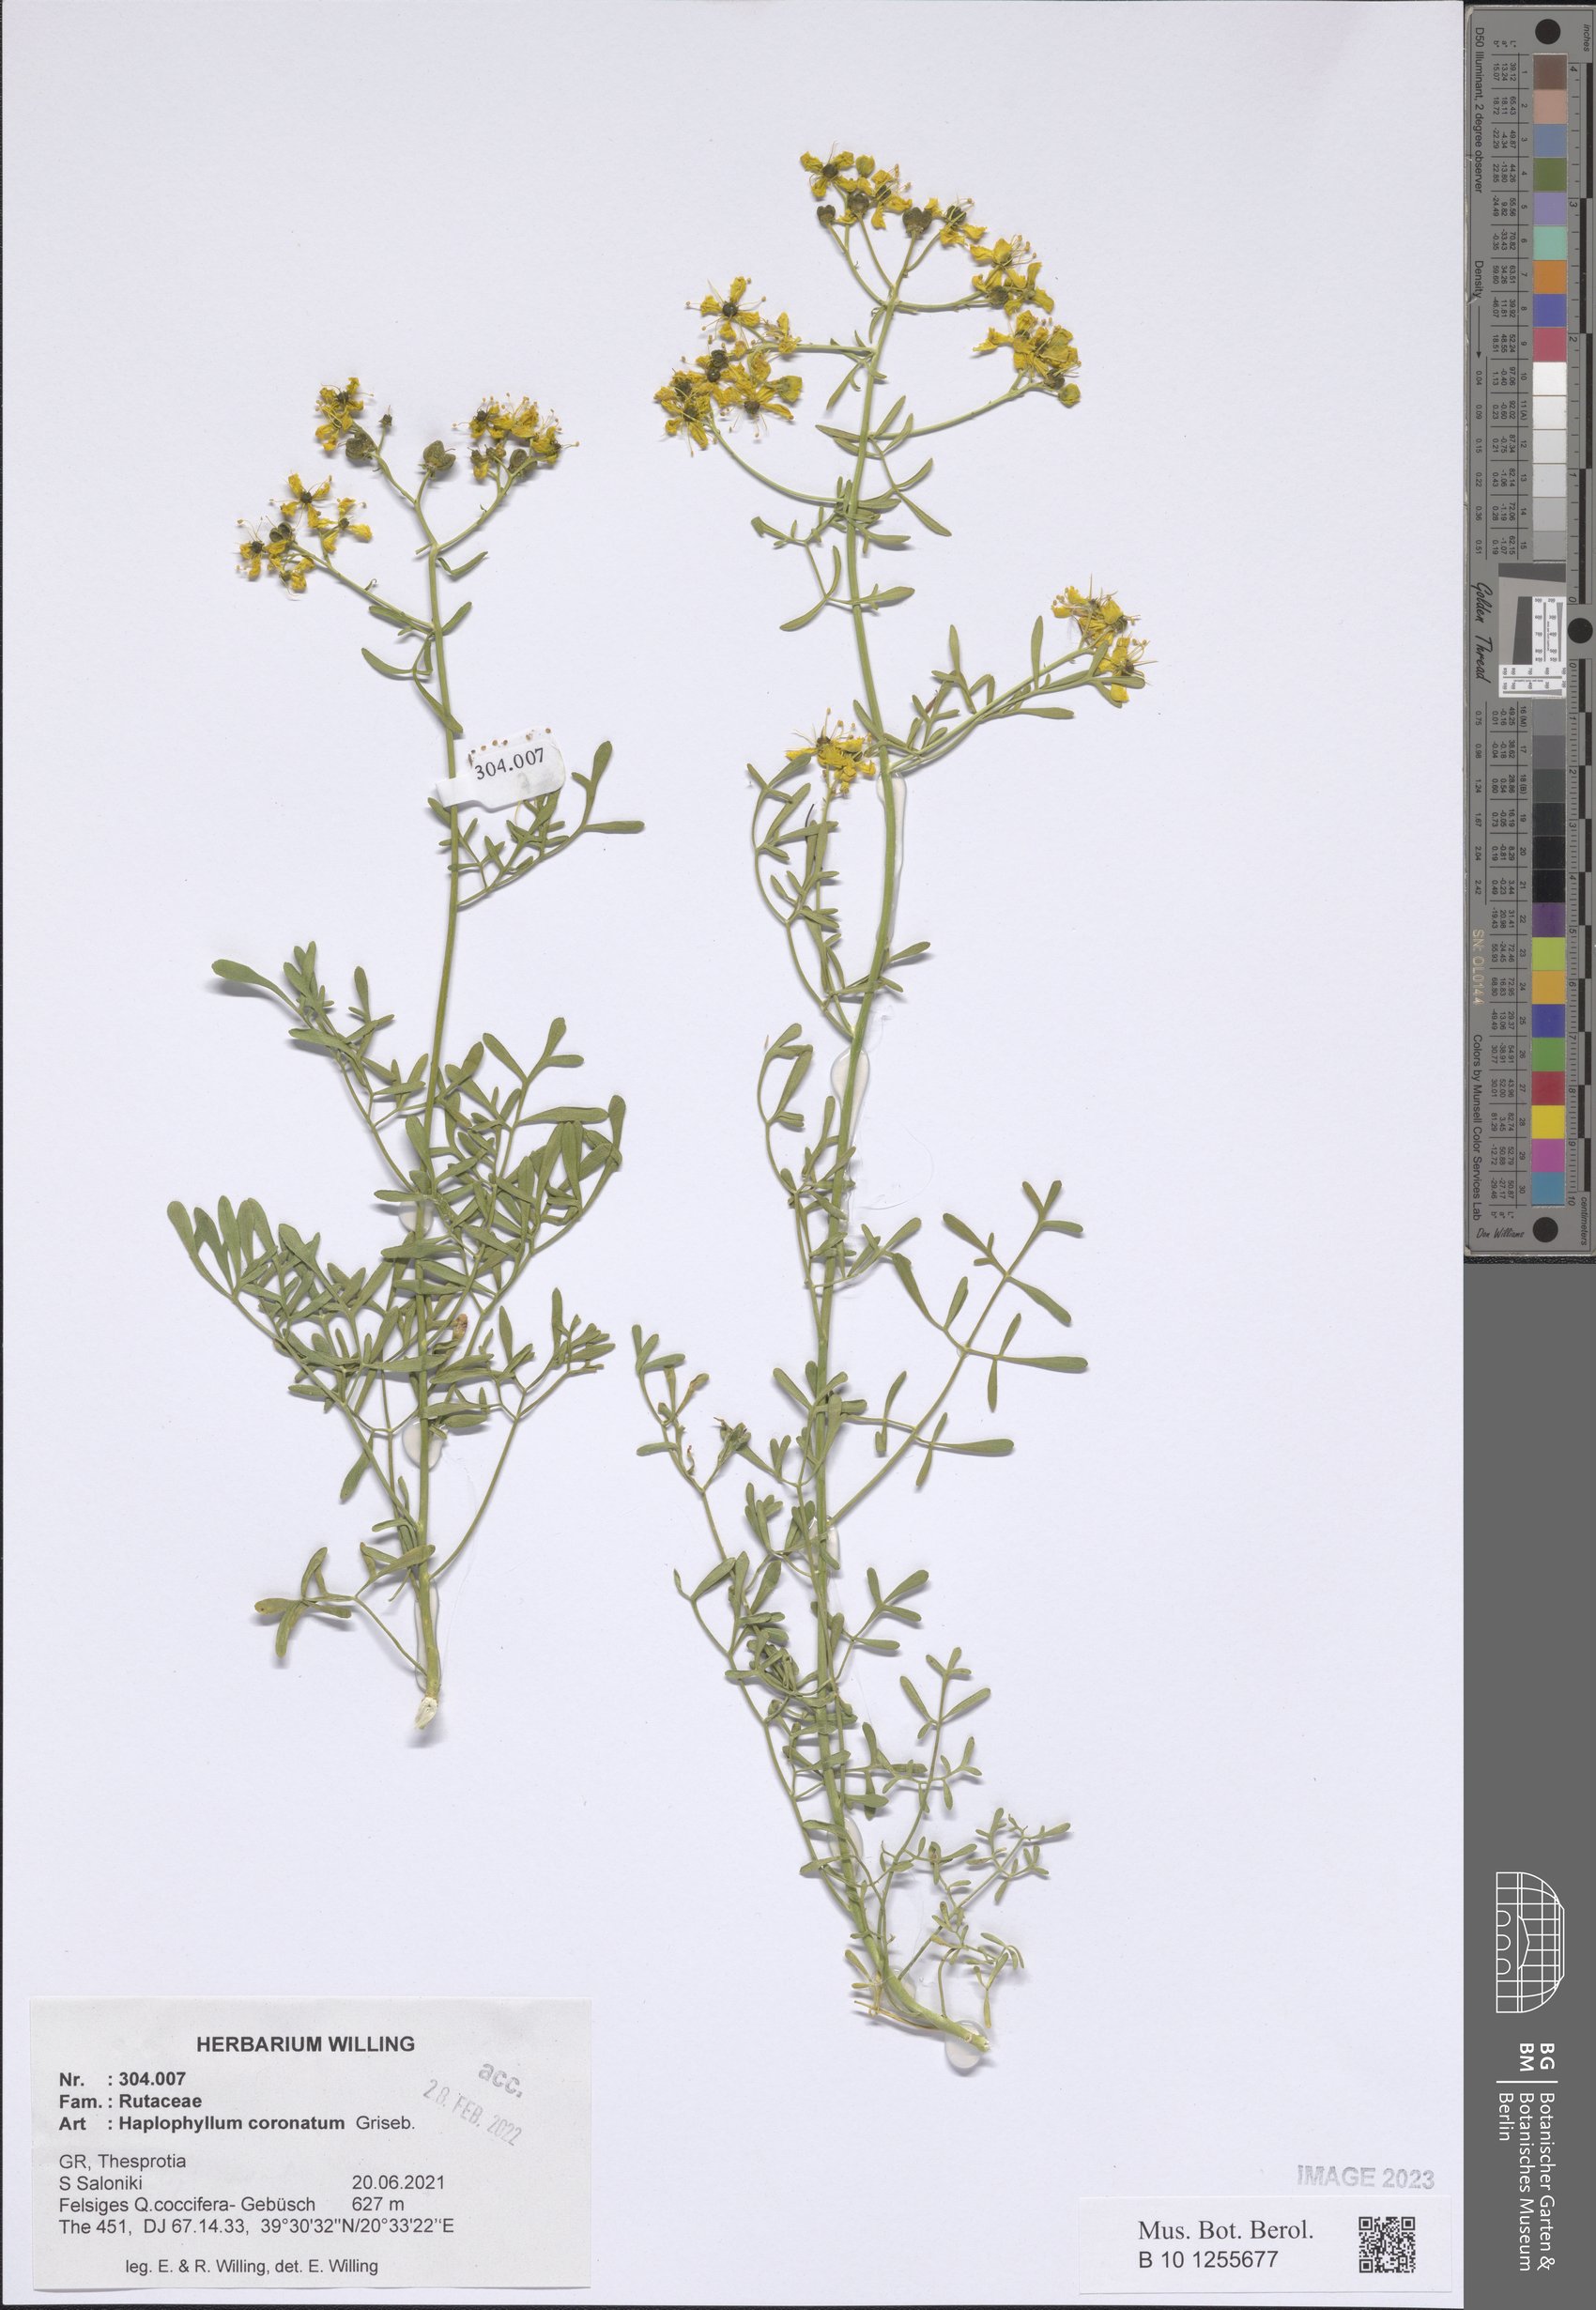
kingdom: Plantae
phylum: Tracheophyta
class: Magnoliopsida
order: Sapindales
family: Rutaceae
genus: Haplophyllum
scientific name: Haplophyllum coronatum
